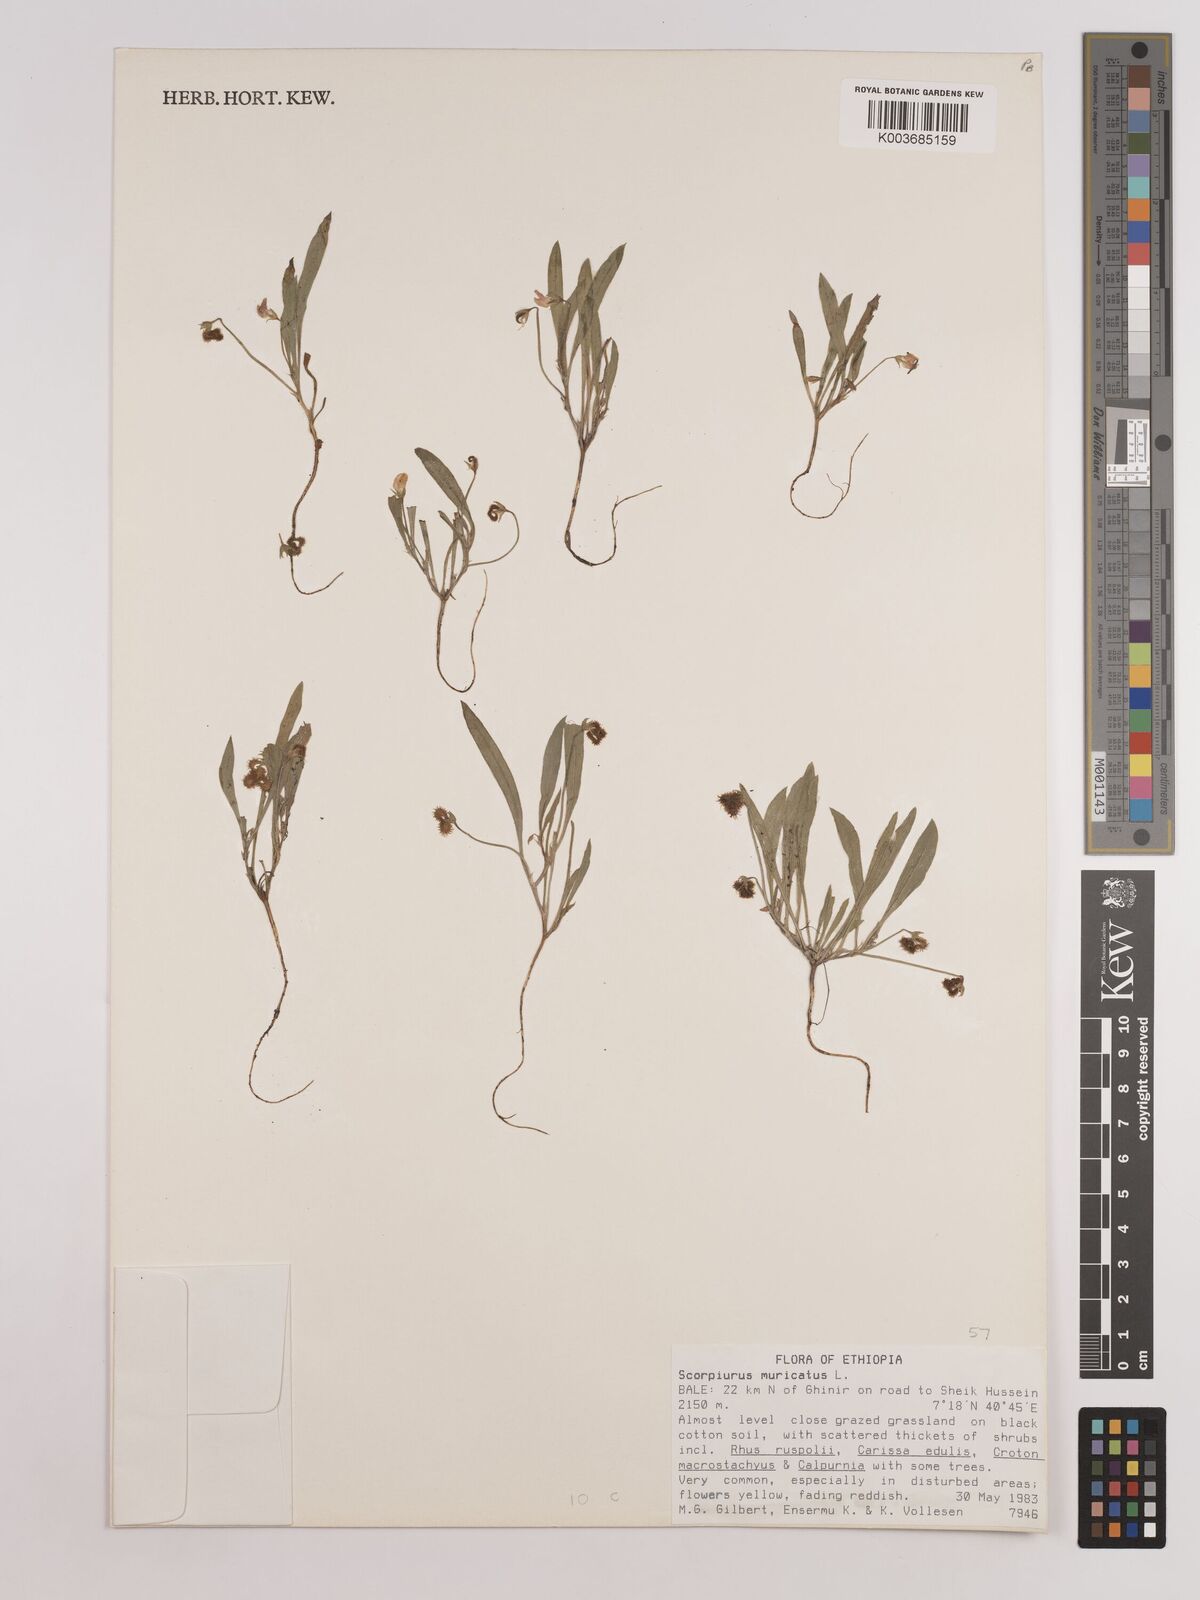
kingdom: Plantae
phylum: Tracheophyta
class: Magnoliopsida
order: Fabales
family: Fabaceae
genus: Scorpiurus
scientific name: Scorpiurus muricatus
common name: Caterpillar-plant
